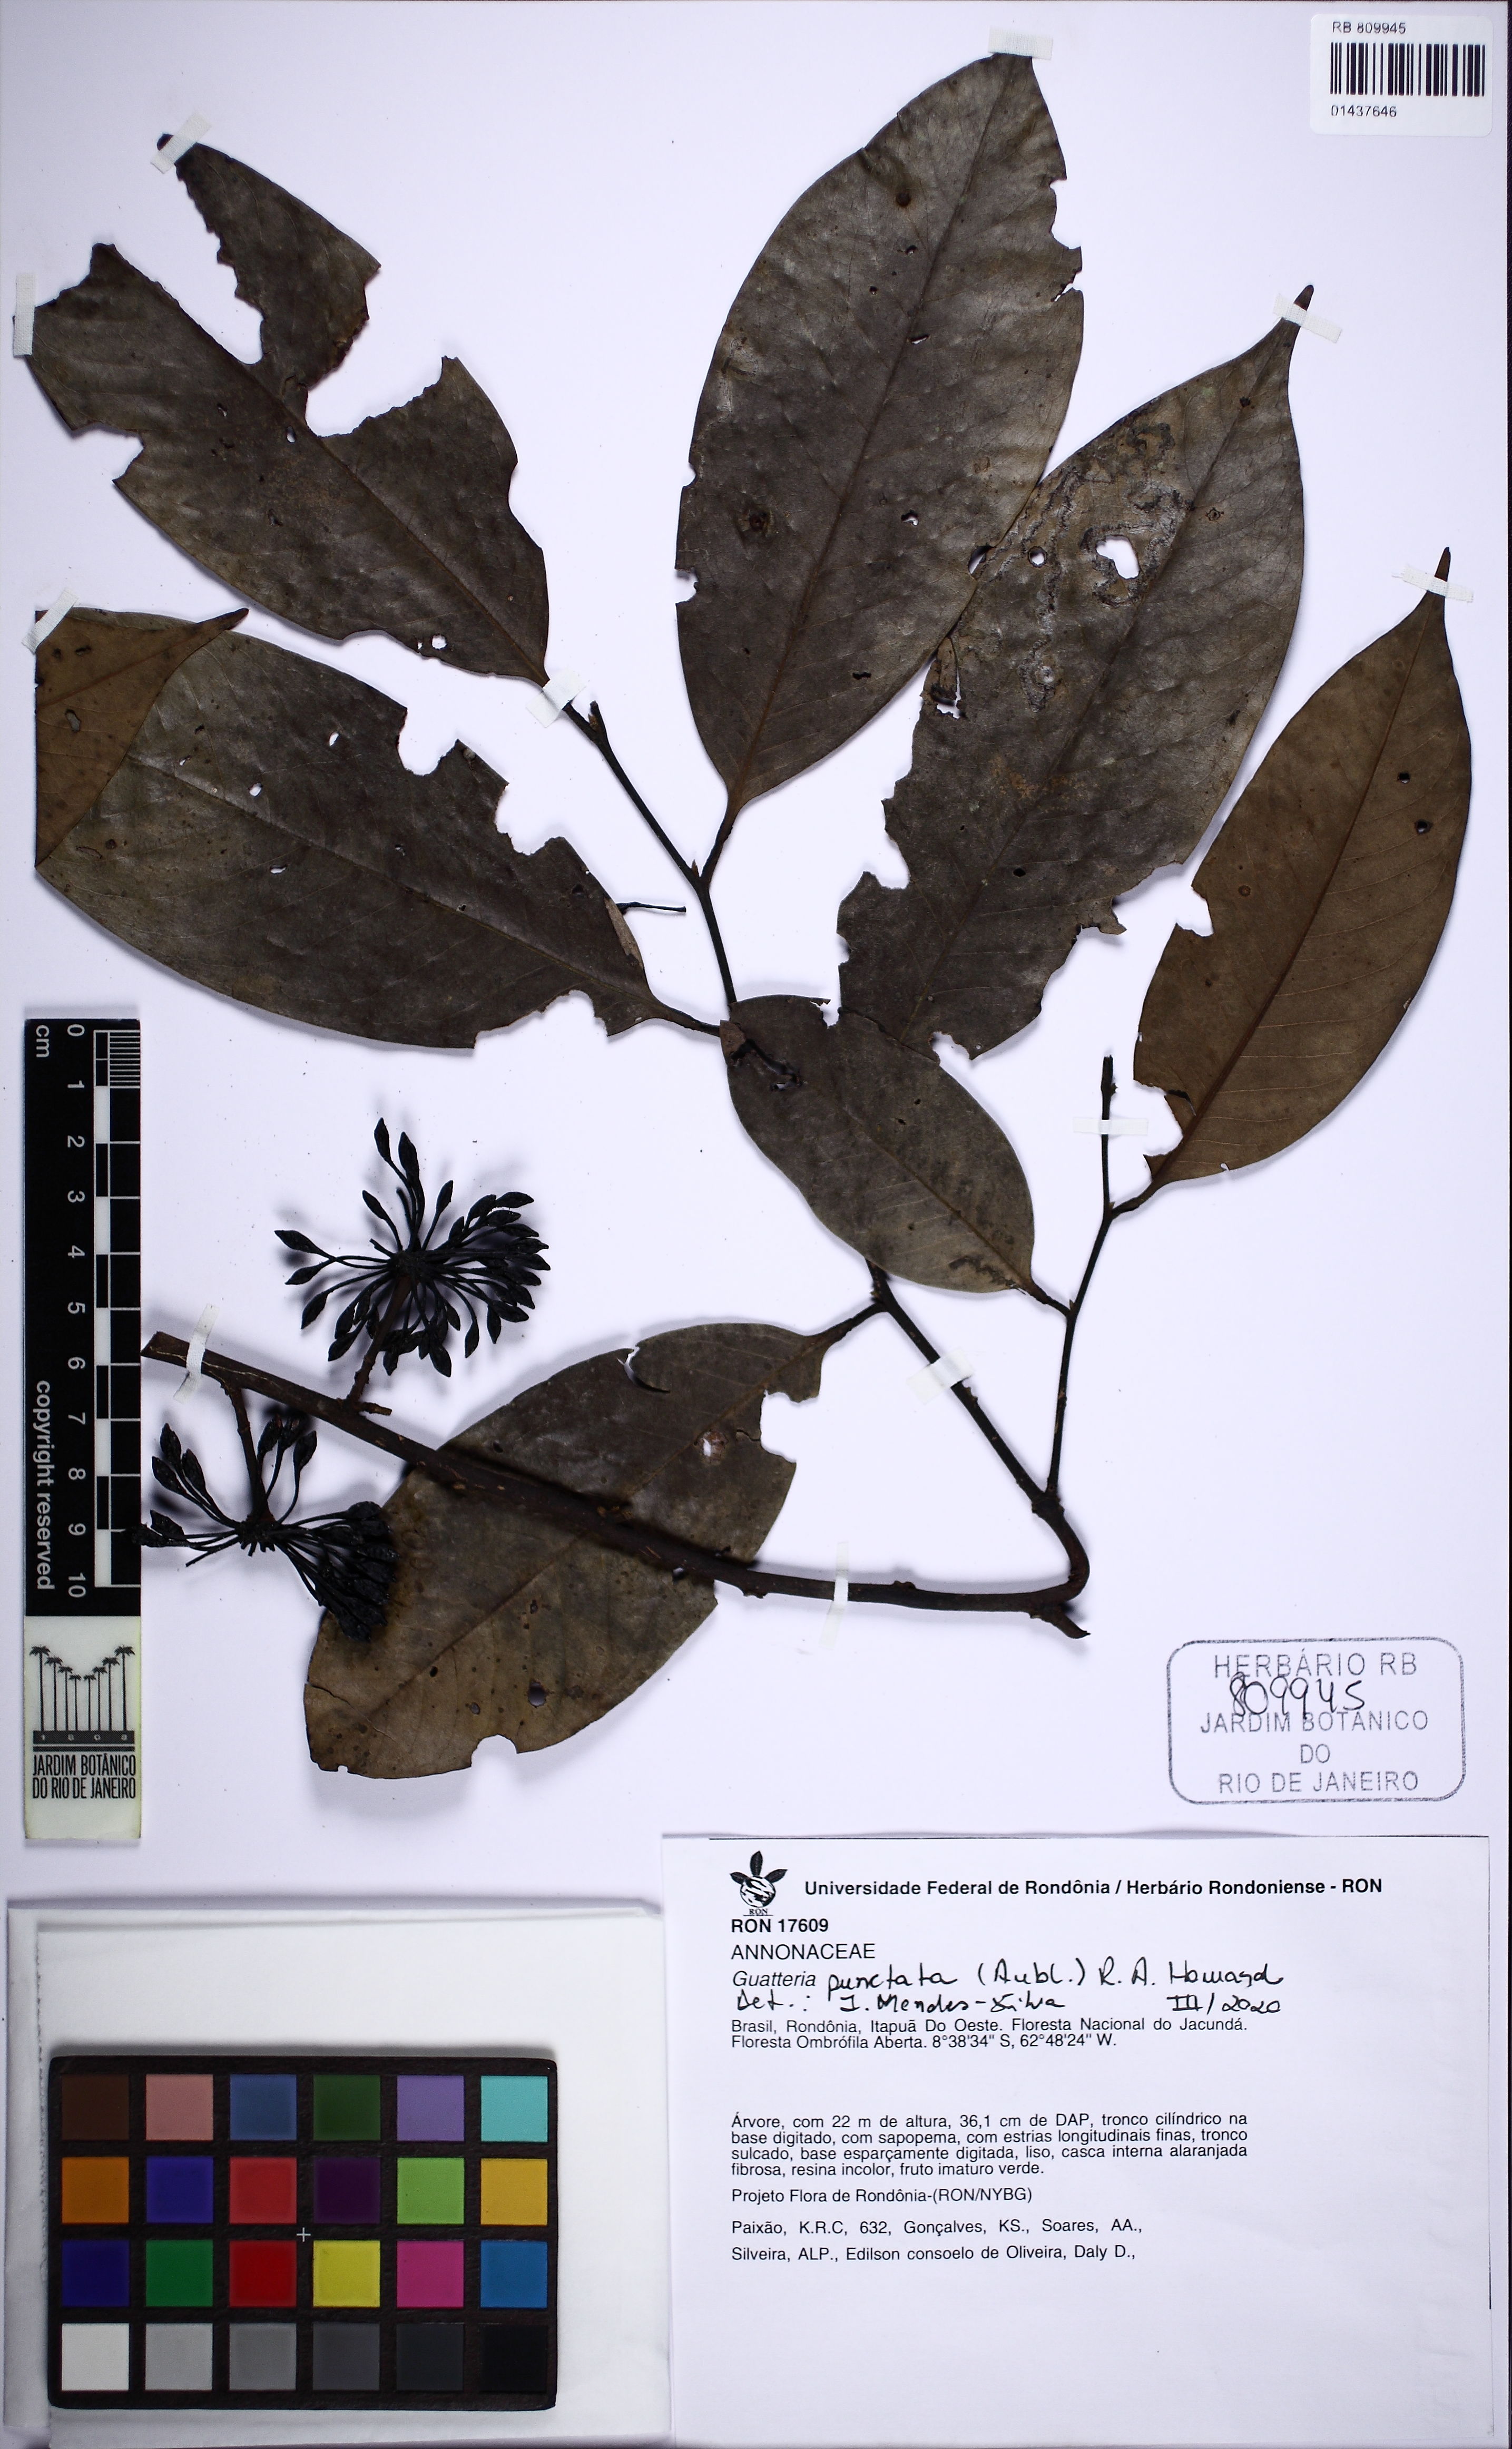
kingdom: Plantae
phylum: Tracheophyta
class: Magnoliopsida
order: Magnoliales
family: Annonaceae
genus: Guatteria
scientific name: Guatteria punctata
